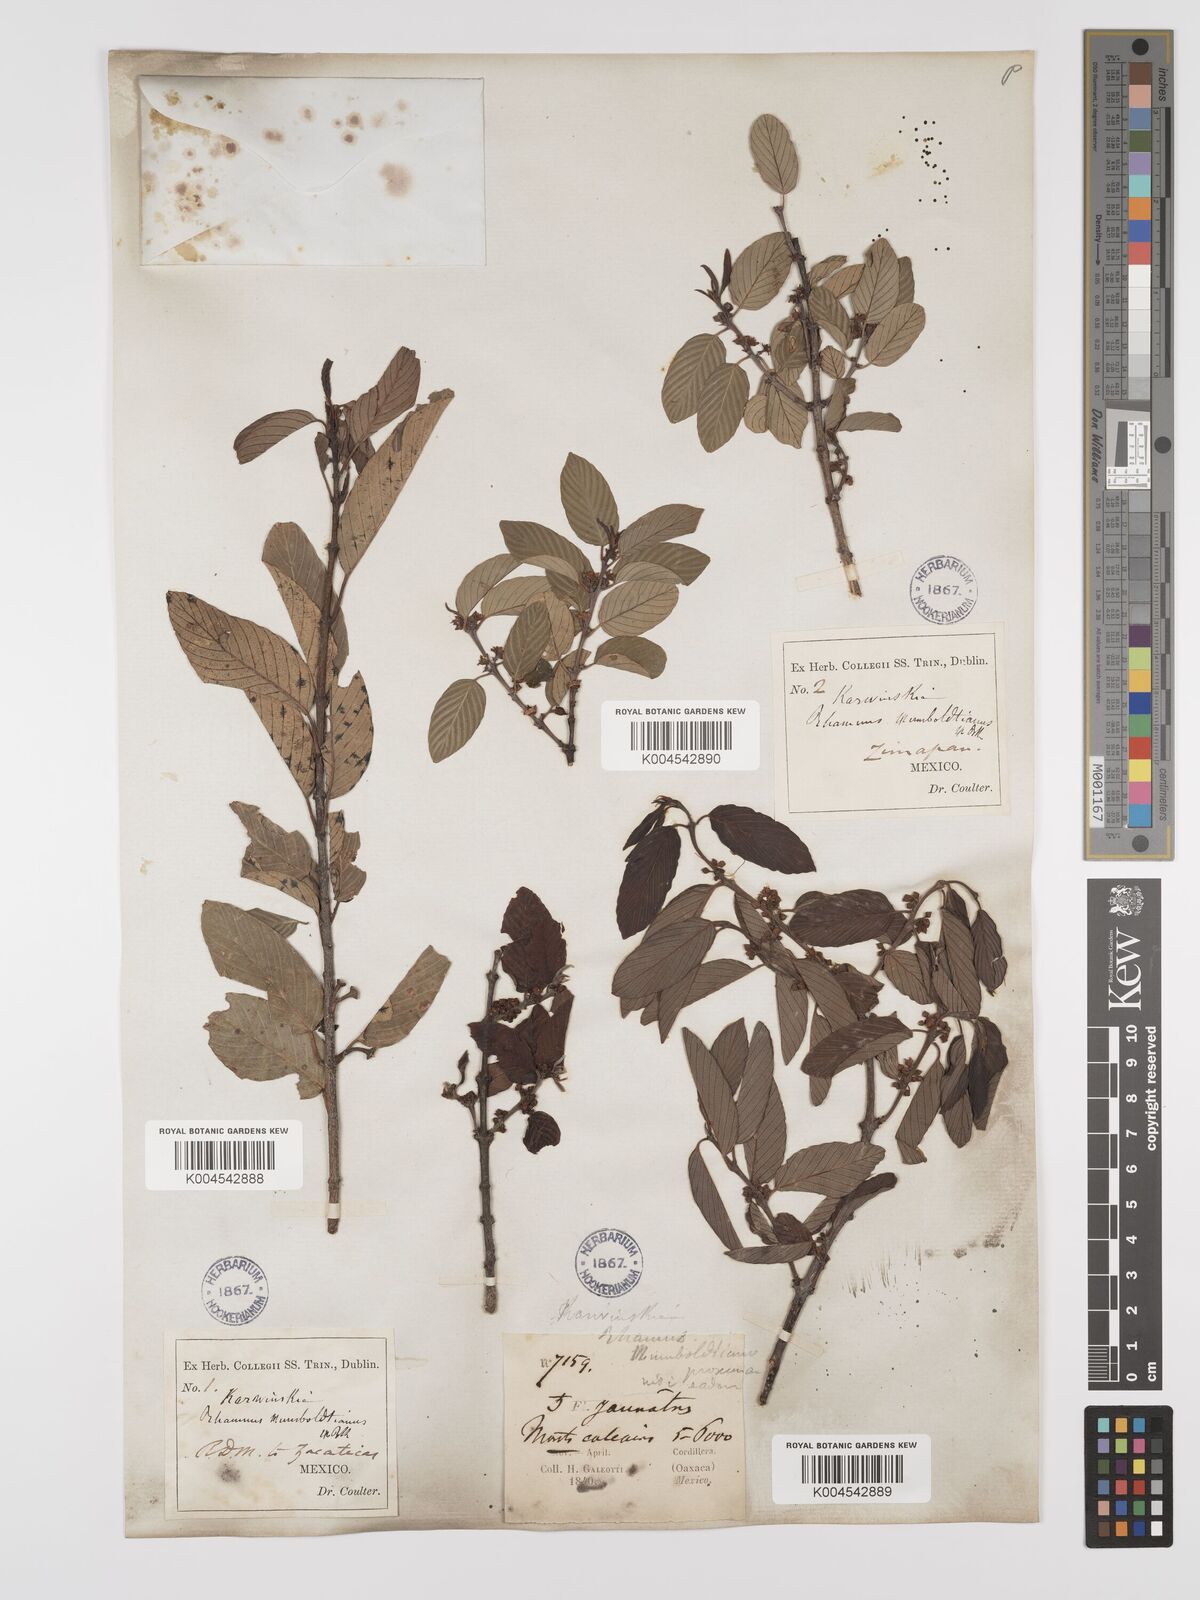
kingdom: Plantae
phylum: Tracheophyta
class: Magnoliopsida
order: Rosales
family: Rhamnaceae
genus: Karwinskia
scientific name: Karwinskia humboldtiana
